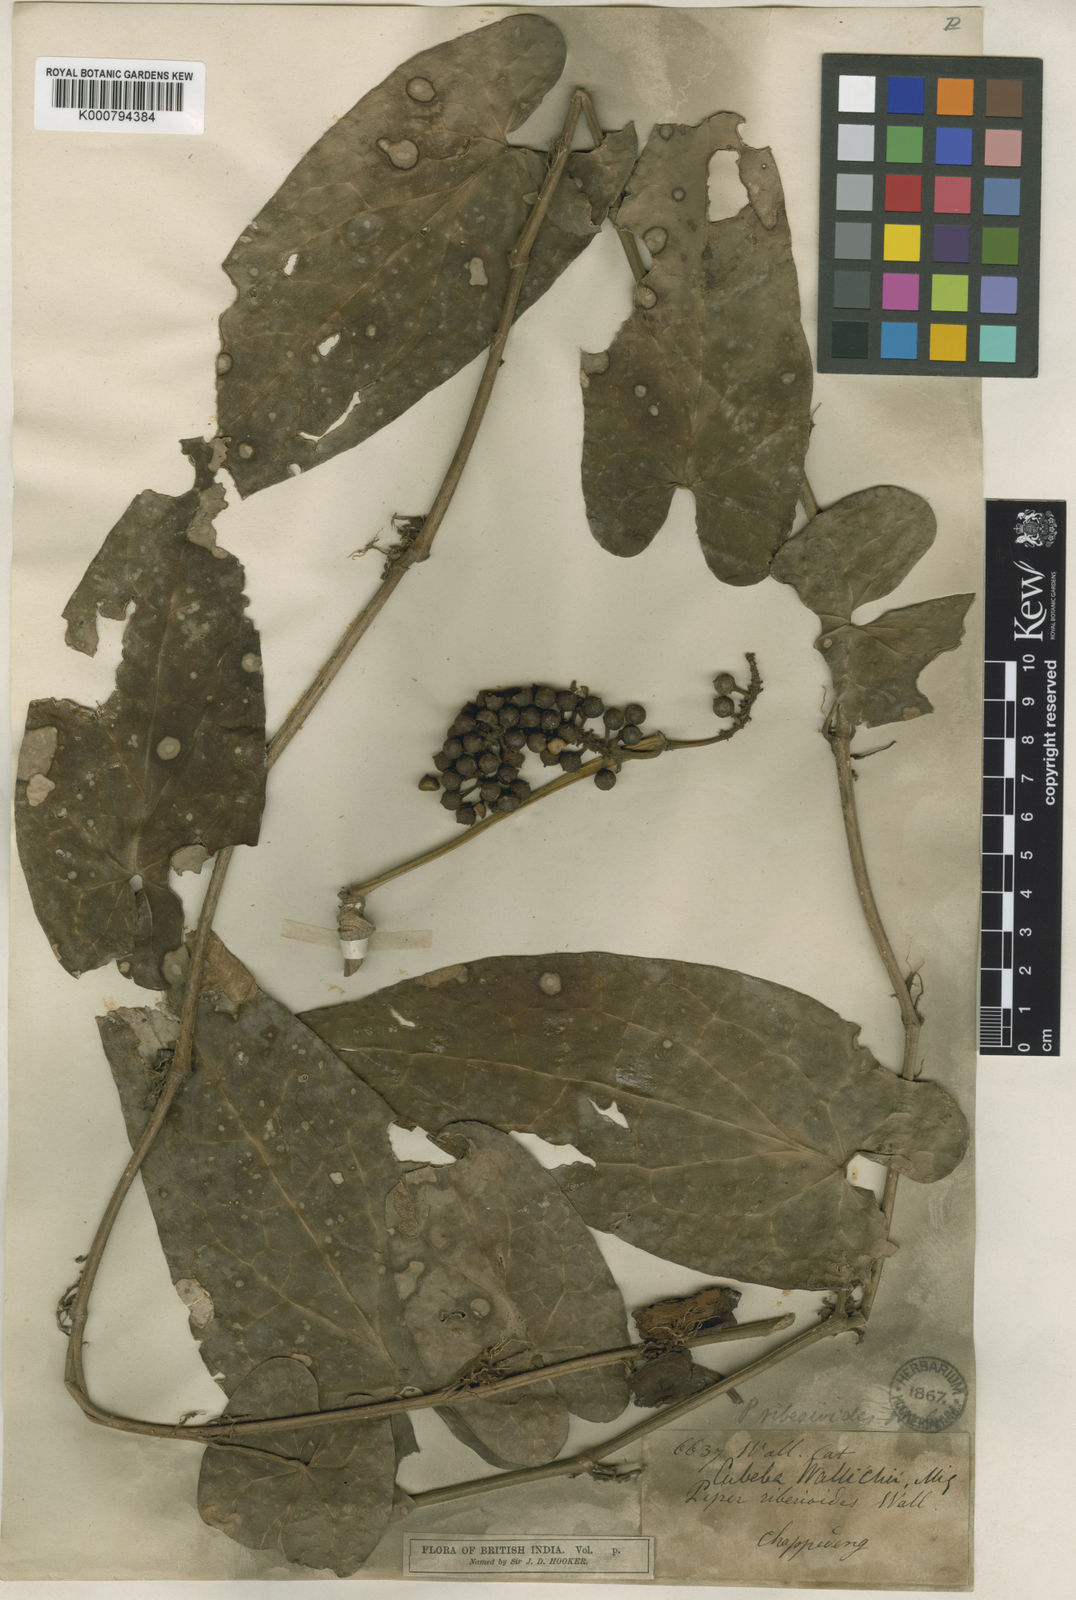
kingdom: Plantae
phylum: Tracheophyta
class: Magnoliopsida
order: Piperales
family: Piperaceae
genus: Piper
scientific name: Piper ribesioides
